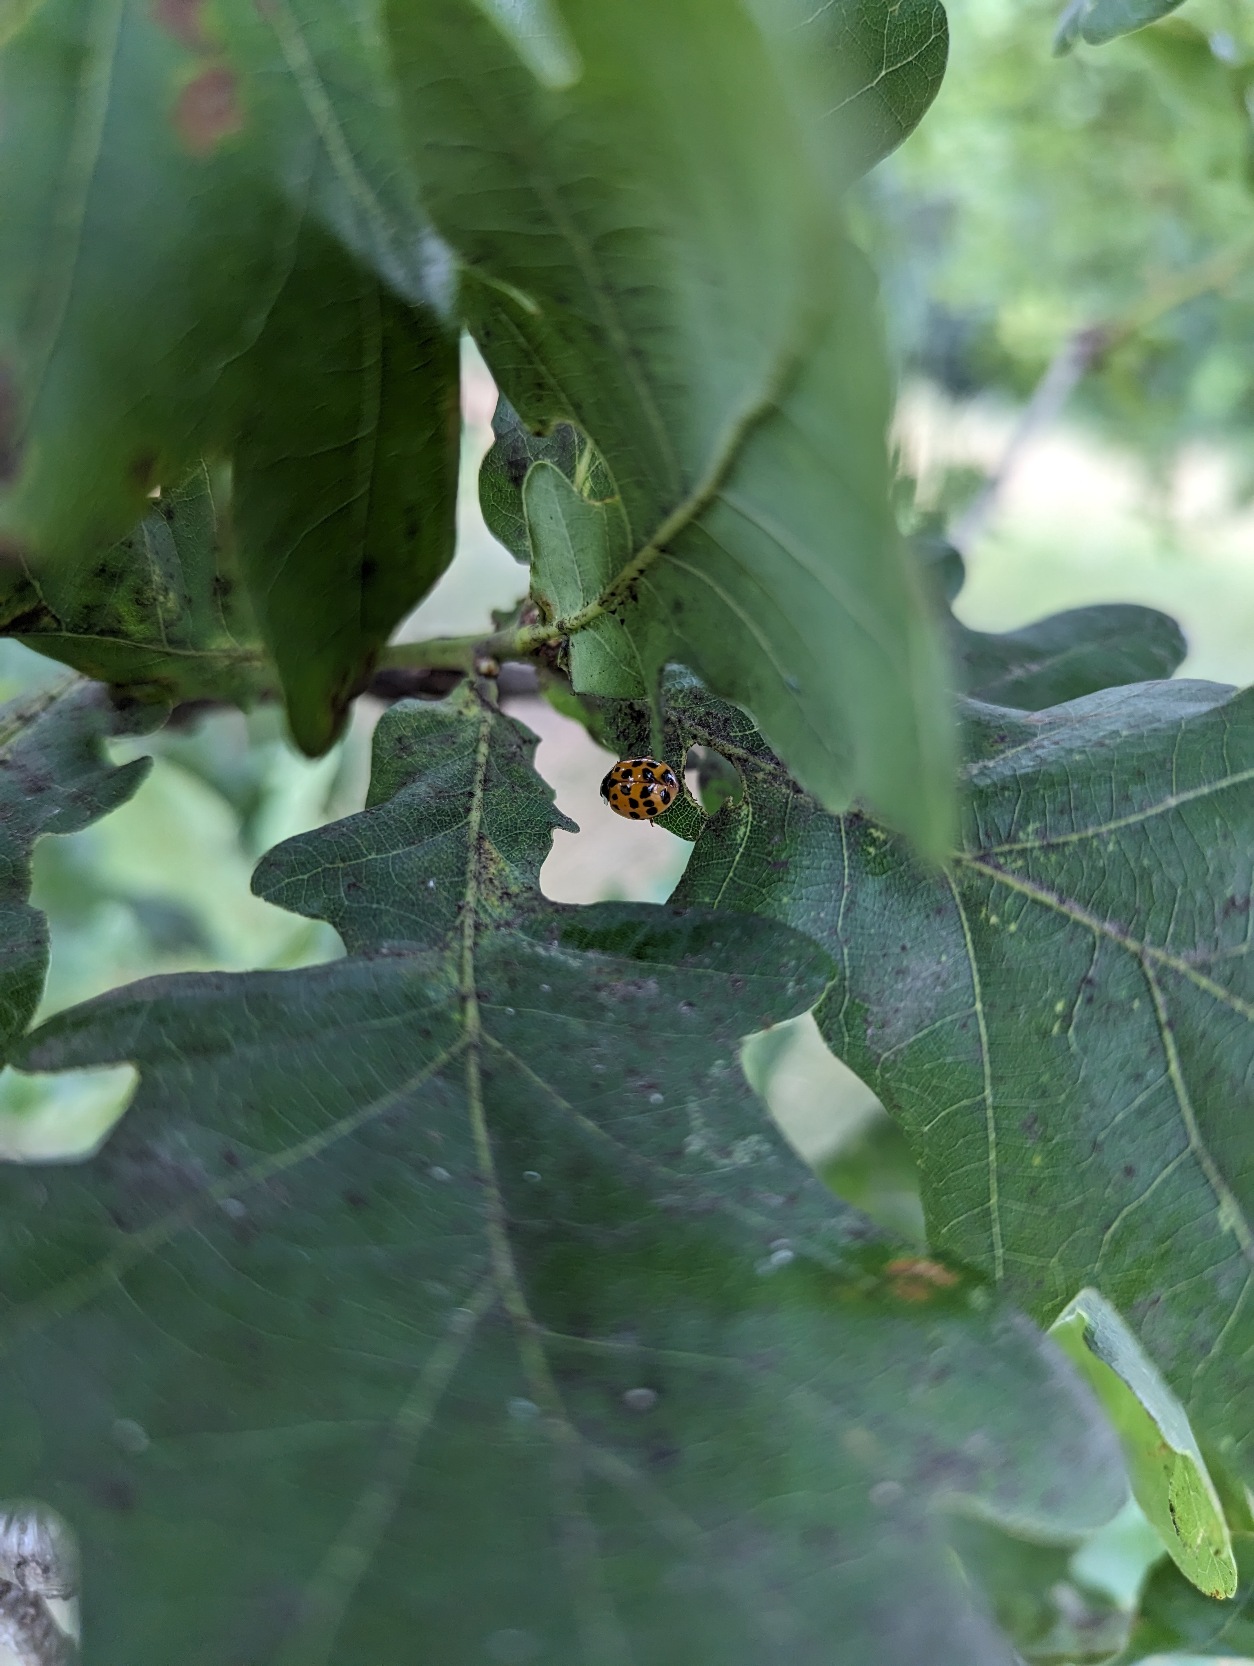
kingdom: Animalia
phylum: Arthropoda
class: Insecta
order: Coleoptera
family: Coccinellidae
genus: Harmonia
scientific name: Harmonia axyridis
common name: Harlekinmariehøne
